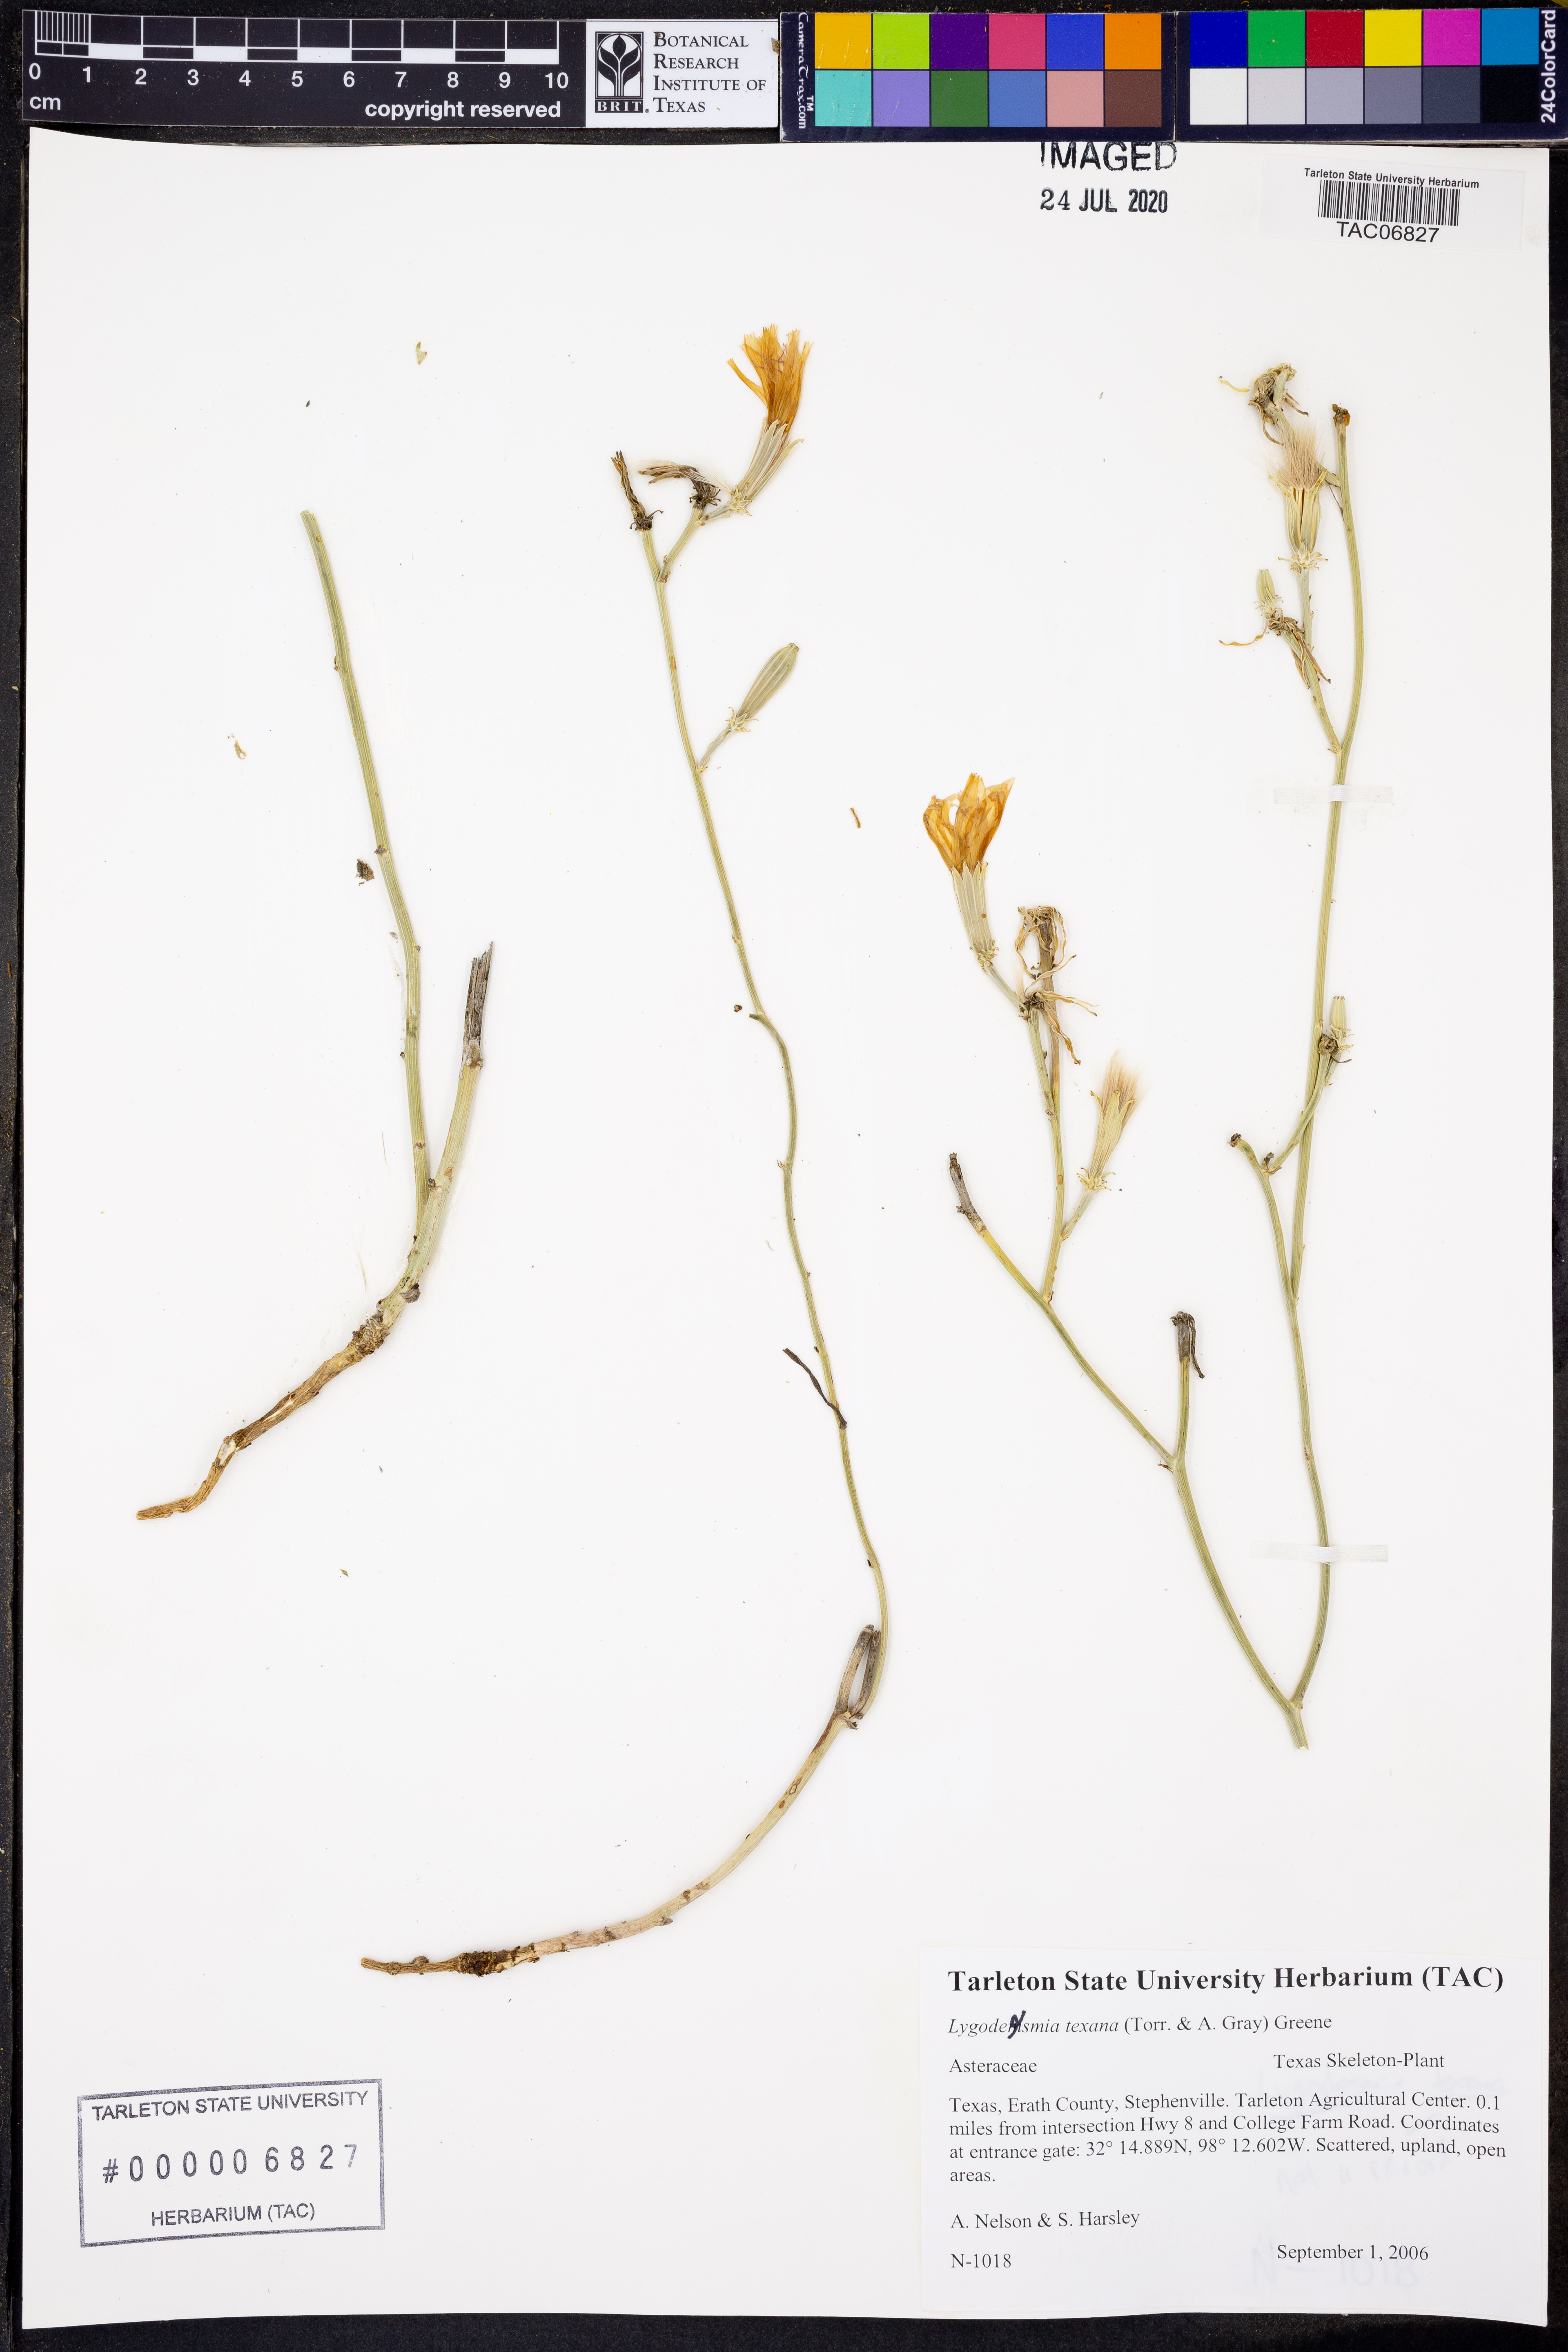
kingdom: Plantae
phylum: Tracheophyta
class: Magnoliopsida
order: Asterales
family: Asteraceae
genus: Lygodesmia
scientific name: Lygodesmia texana
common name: Texas skeleton-plant
